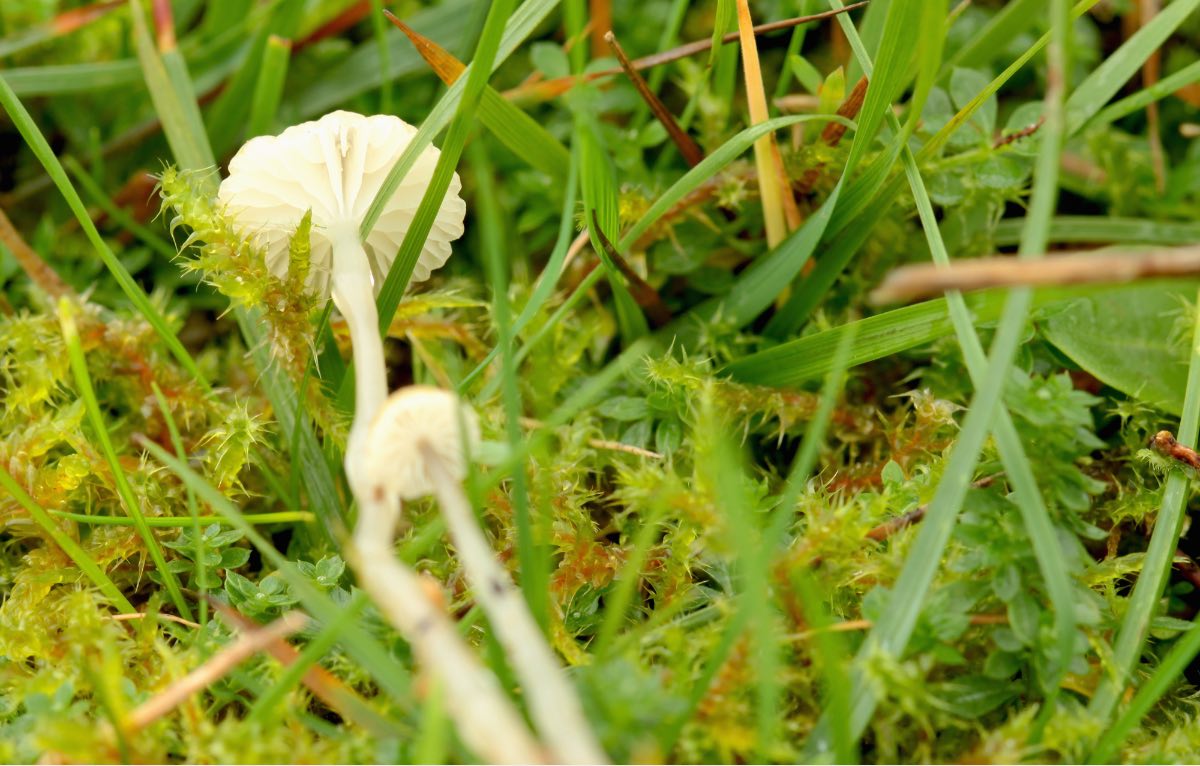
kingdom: Fungi
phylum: Basidiomycota
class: Agaricomycetes
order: Agaricales
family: Mycenaceae
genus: Roridomyces
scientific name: Roridomyces roridus
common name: slimfod
